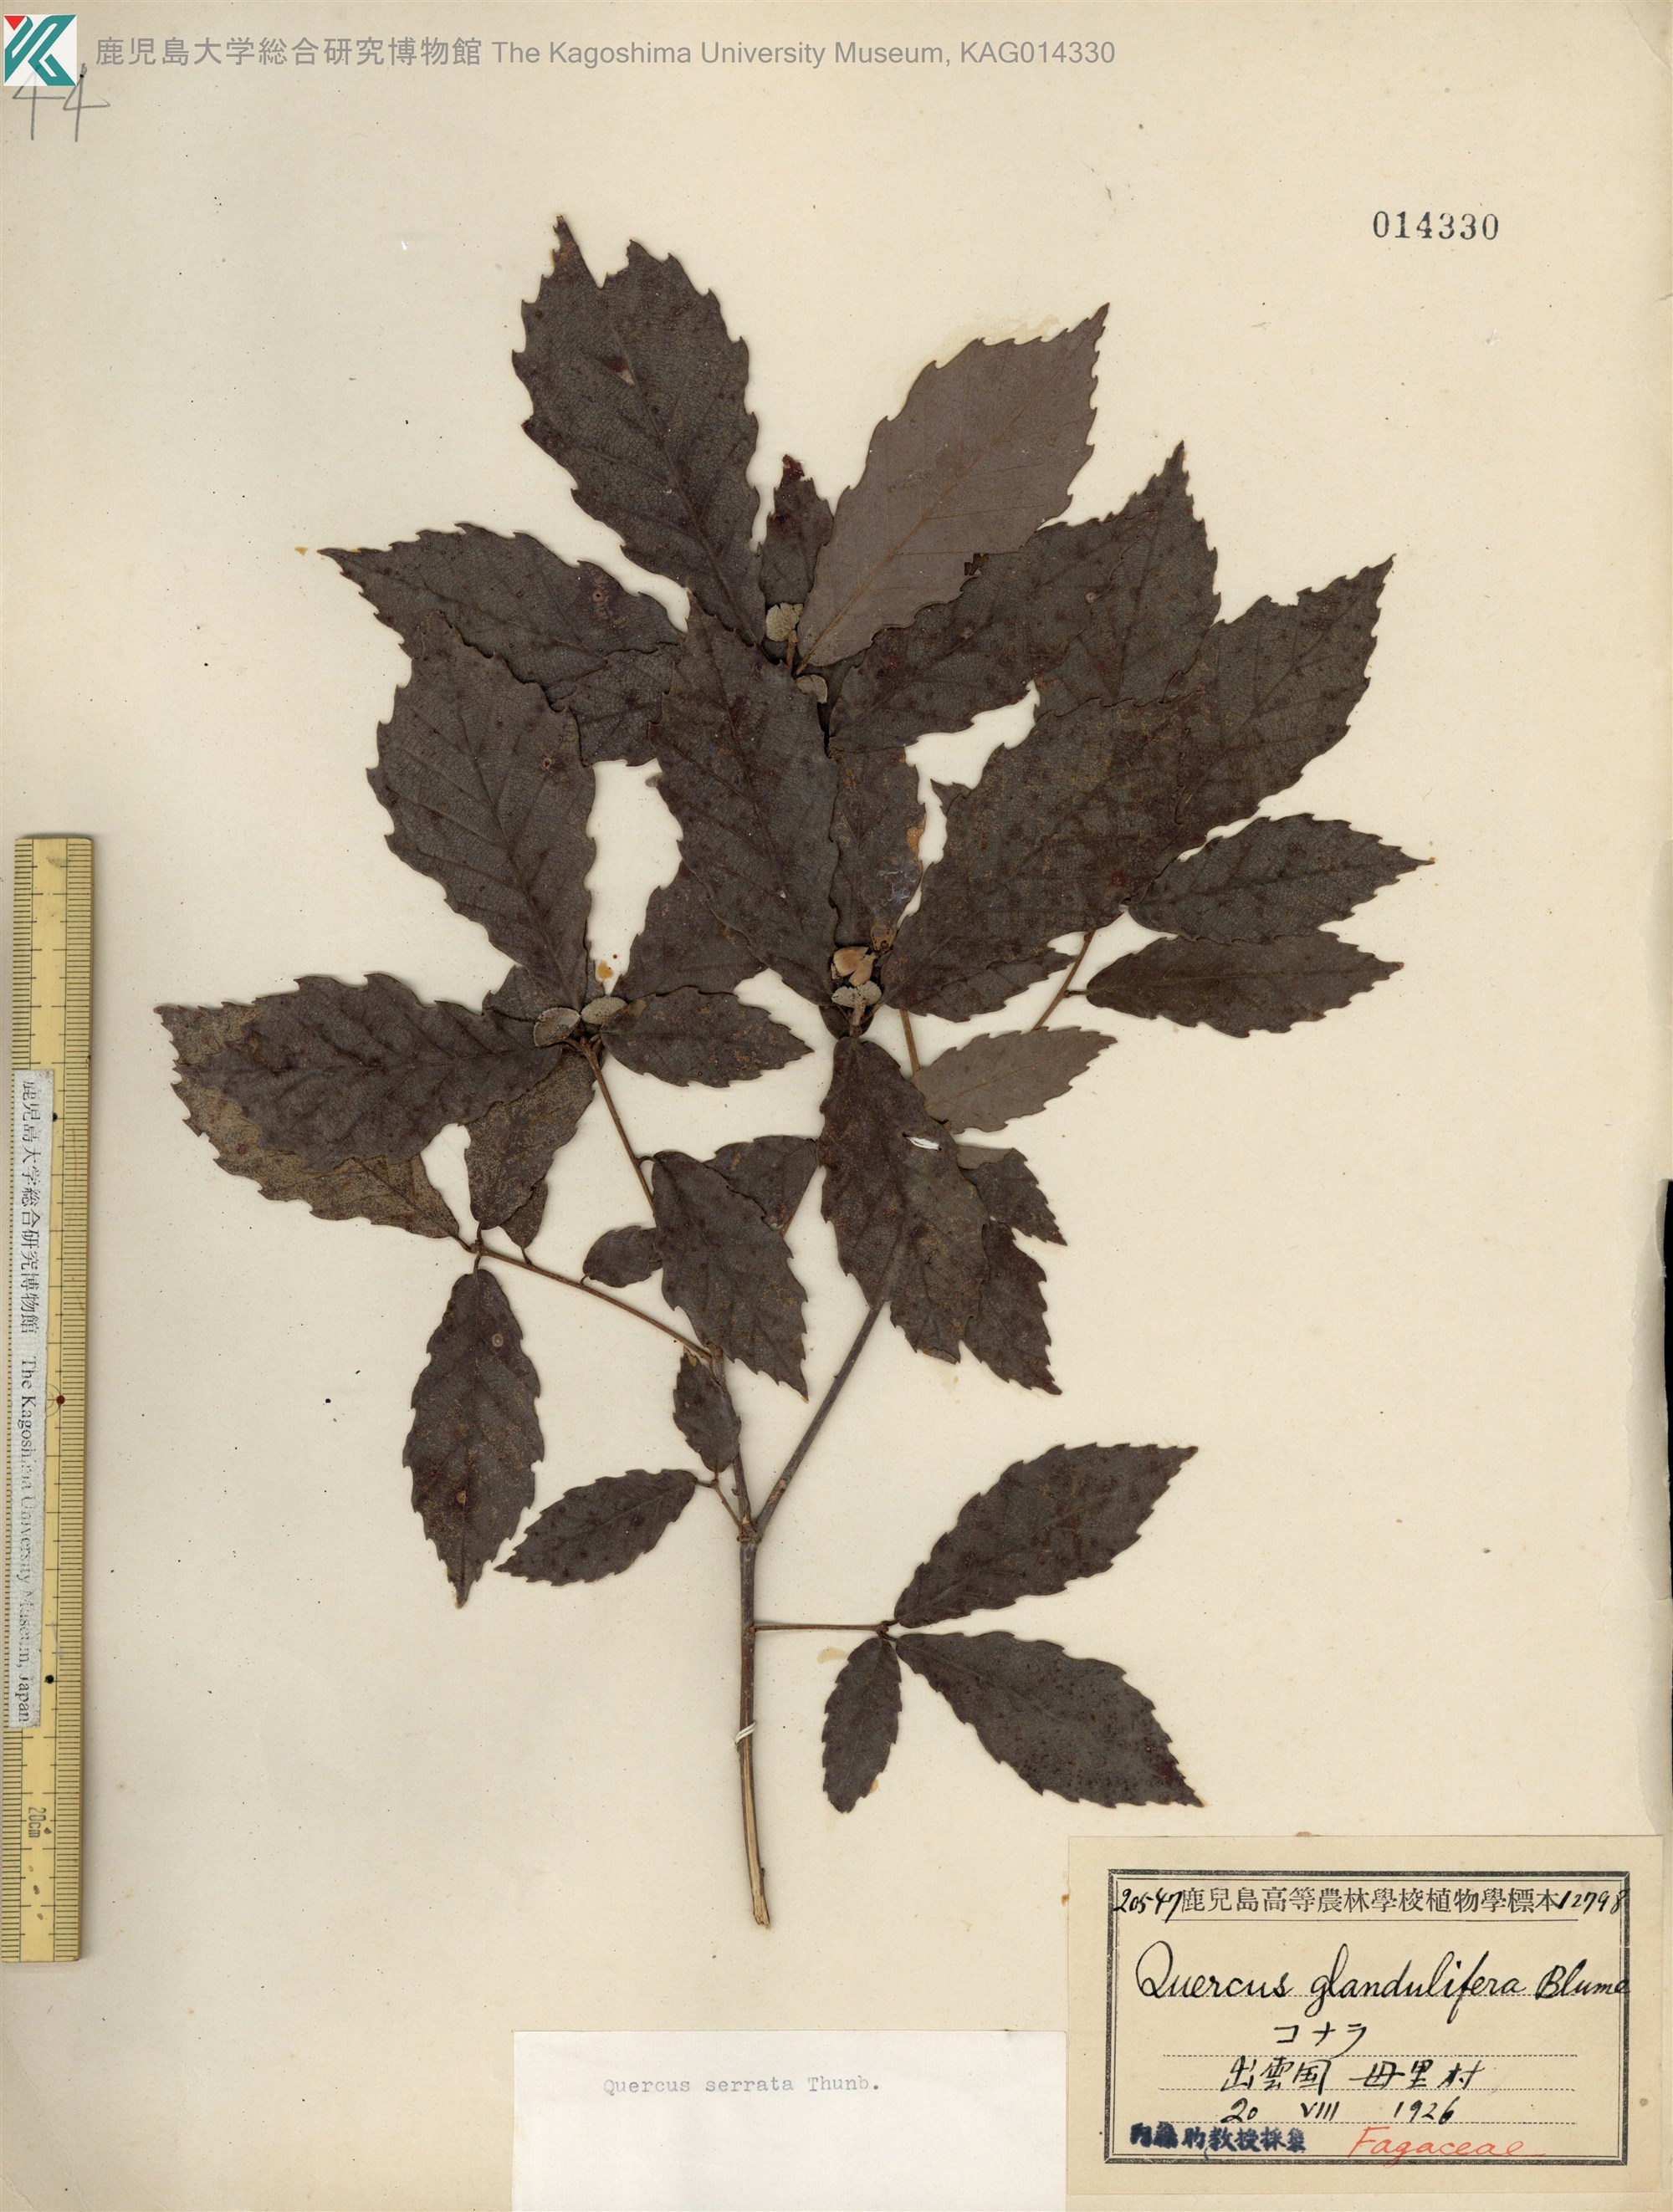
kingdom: Plantae
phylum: Tracheophyta
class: Magnoliopsida
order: Fagales
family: Fagaceae
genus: Quercus
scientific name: Quercus serrata
